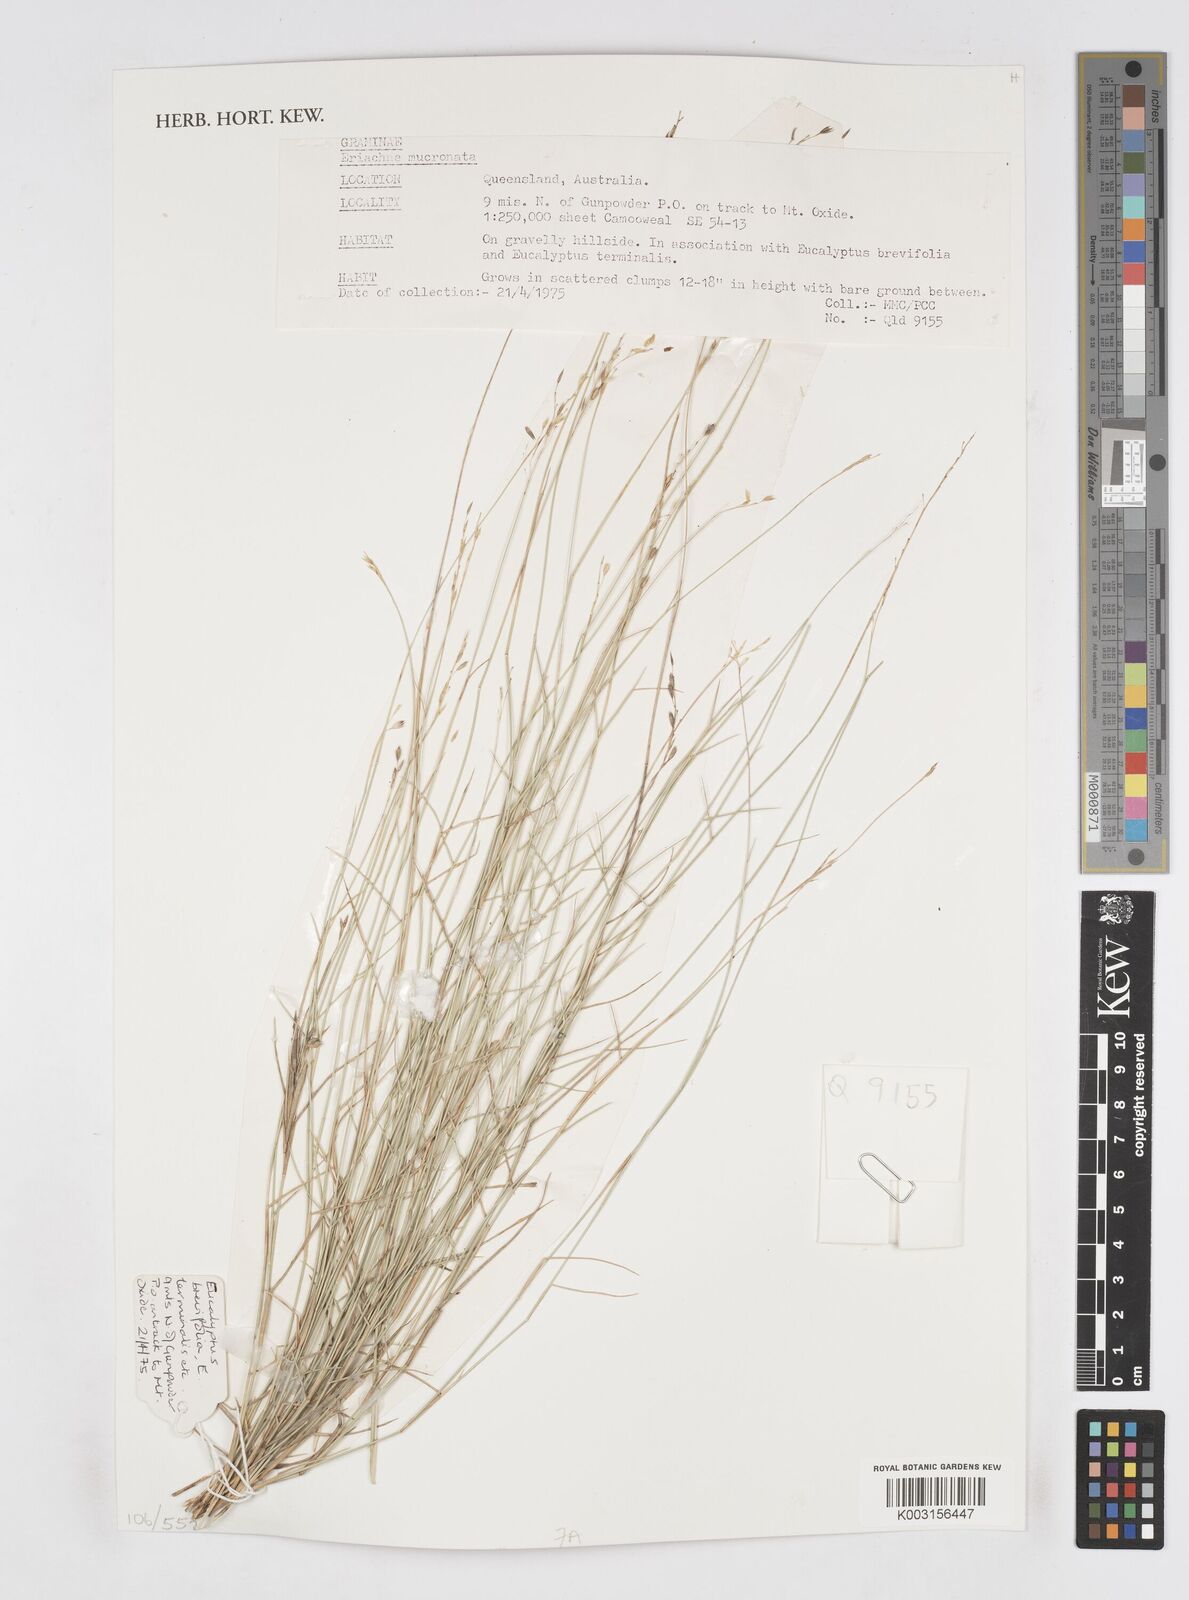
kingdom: Plantae
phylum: Tracheophyta
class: Liliopsida
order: Poales
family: Poaceae
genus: Eriachne
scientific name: Eriachne mucronata
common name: Mountain wanderrie grass
